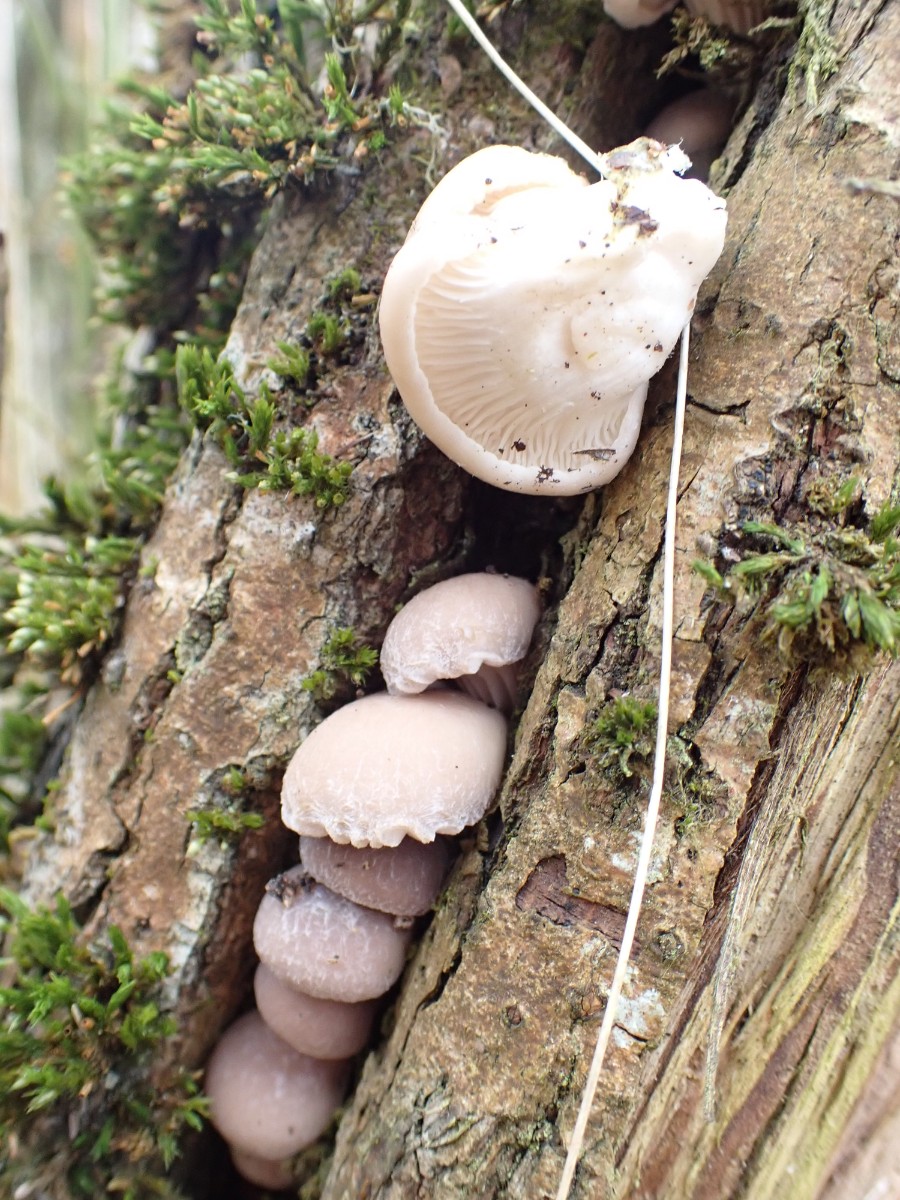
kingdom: Fungi
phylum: Basidiomycota
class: Agaricomycetes
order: Agaricales
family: Pleurotaceae
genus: Pleurotus
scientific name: Pleurotus ostreatus
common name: Oyster mushroom
